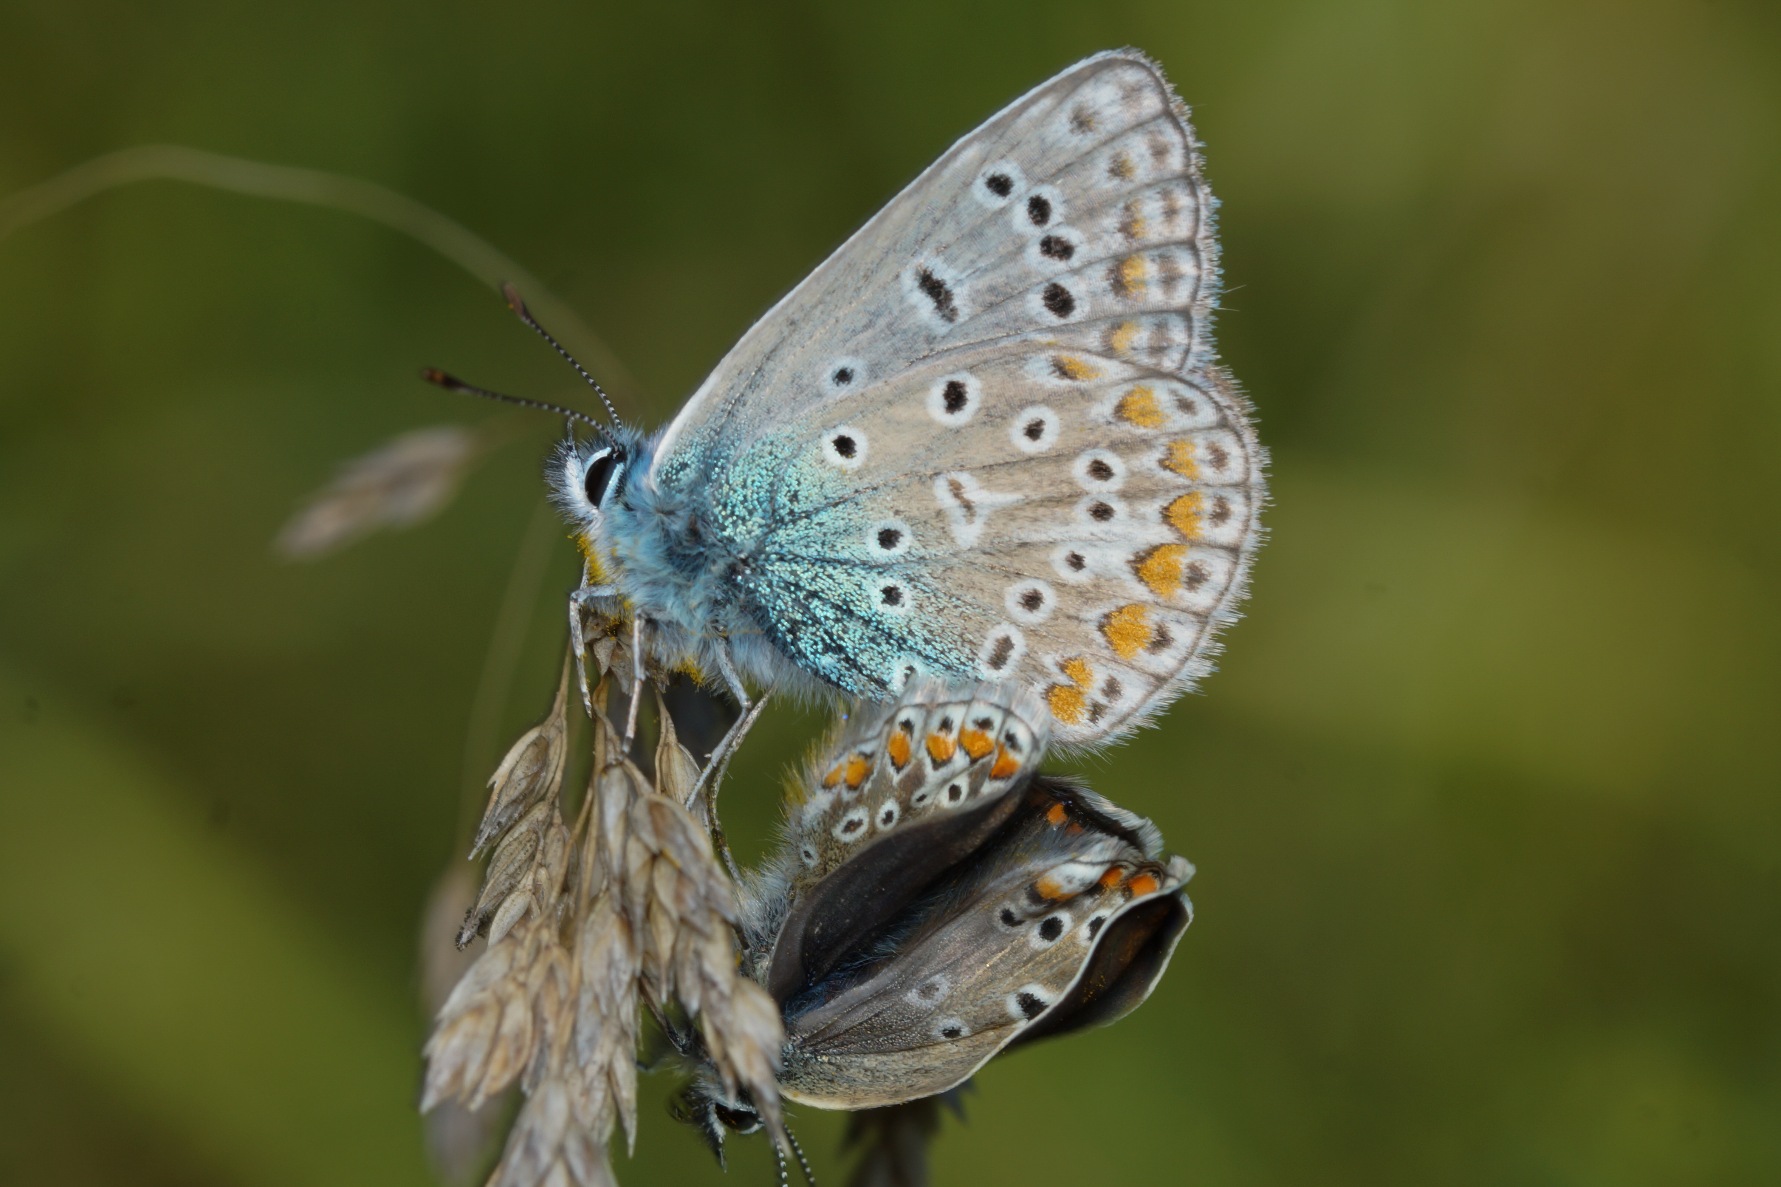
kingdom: Animalia
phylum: Arthropoda
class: Insecta
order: Lepidoptera
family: Lycaenidae
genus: Polyommatus
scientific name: Polyommatus icarus
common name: Almindelig blåfugl
